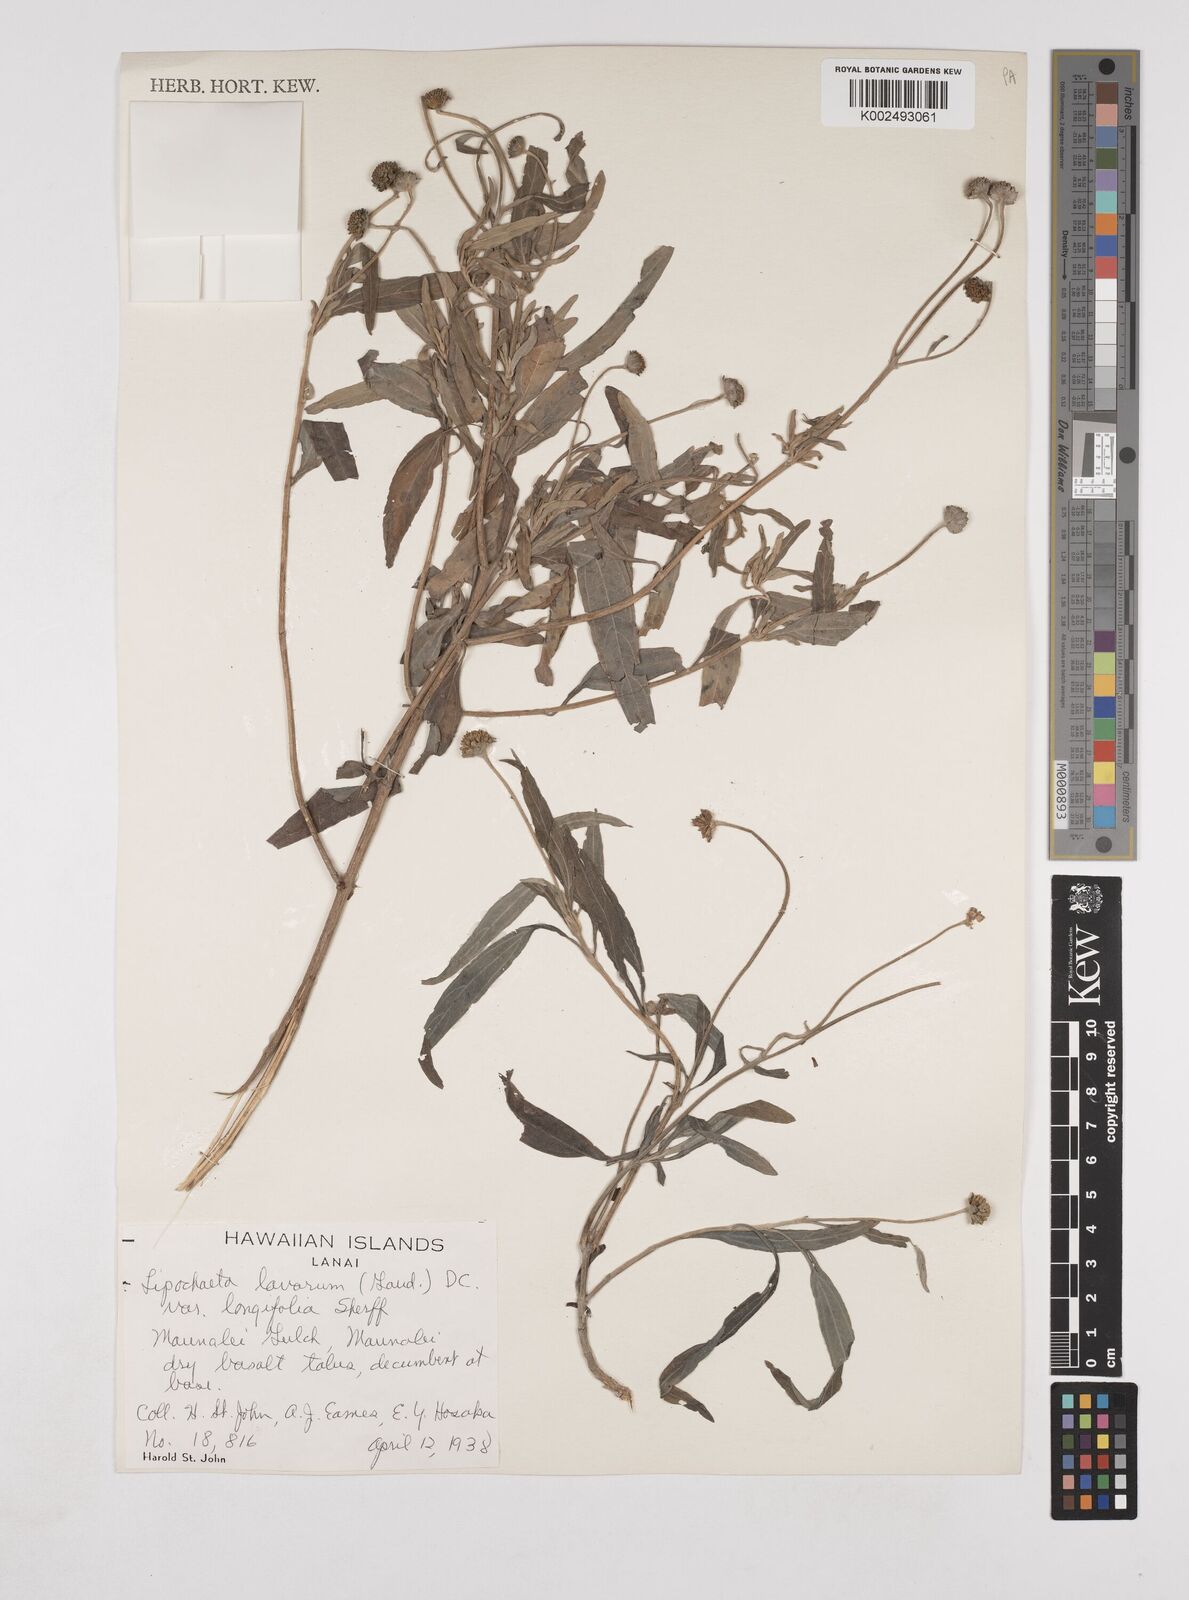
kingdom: Plantae
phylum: Tracheophyta
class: Magnoliopsida
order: Asterales
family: Asteraceae
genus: Lipochaeta
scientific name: Lipochaeta lavarum
